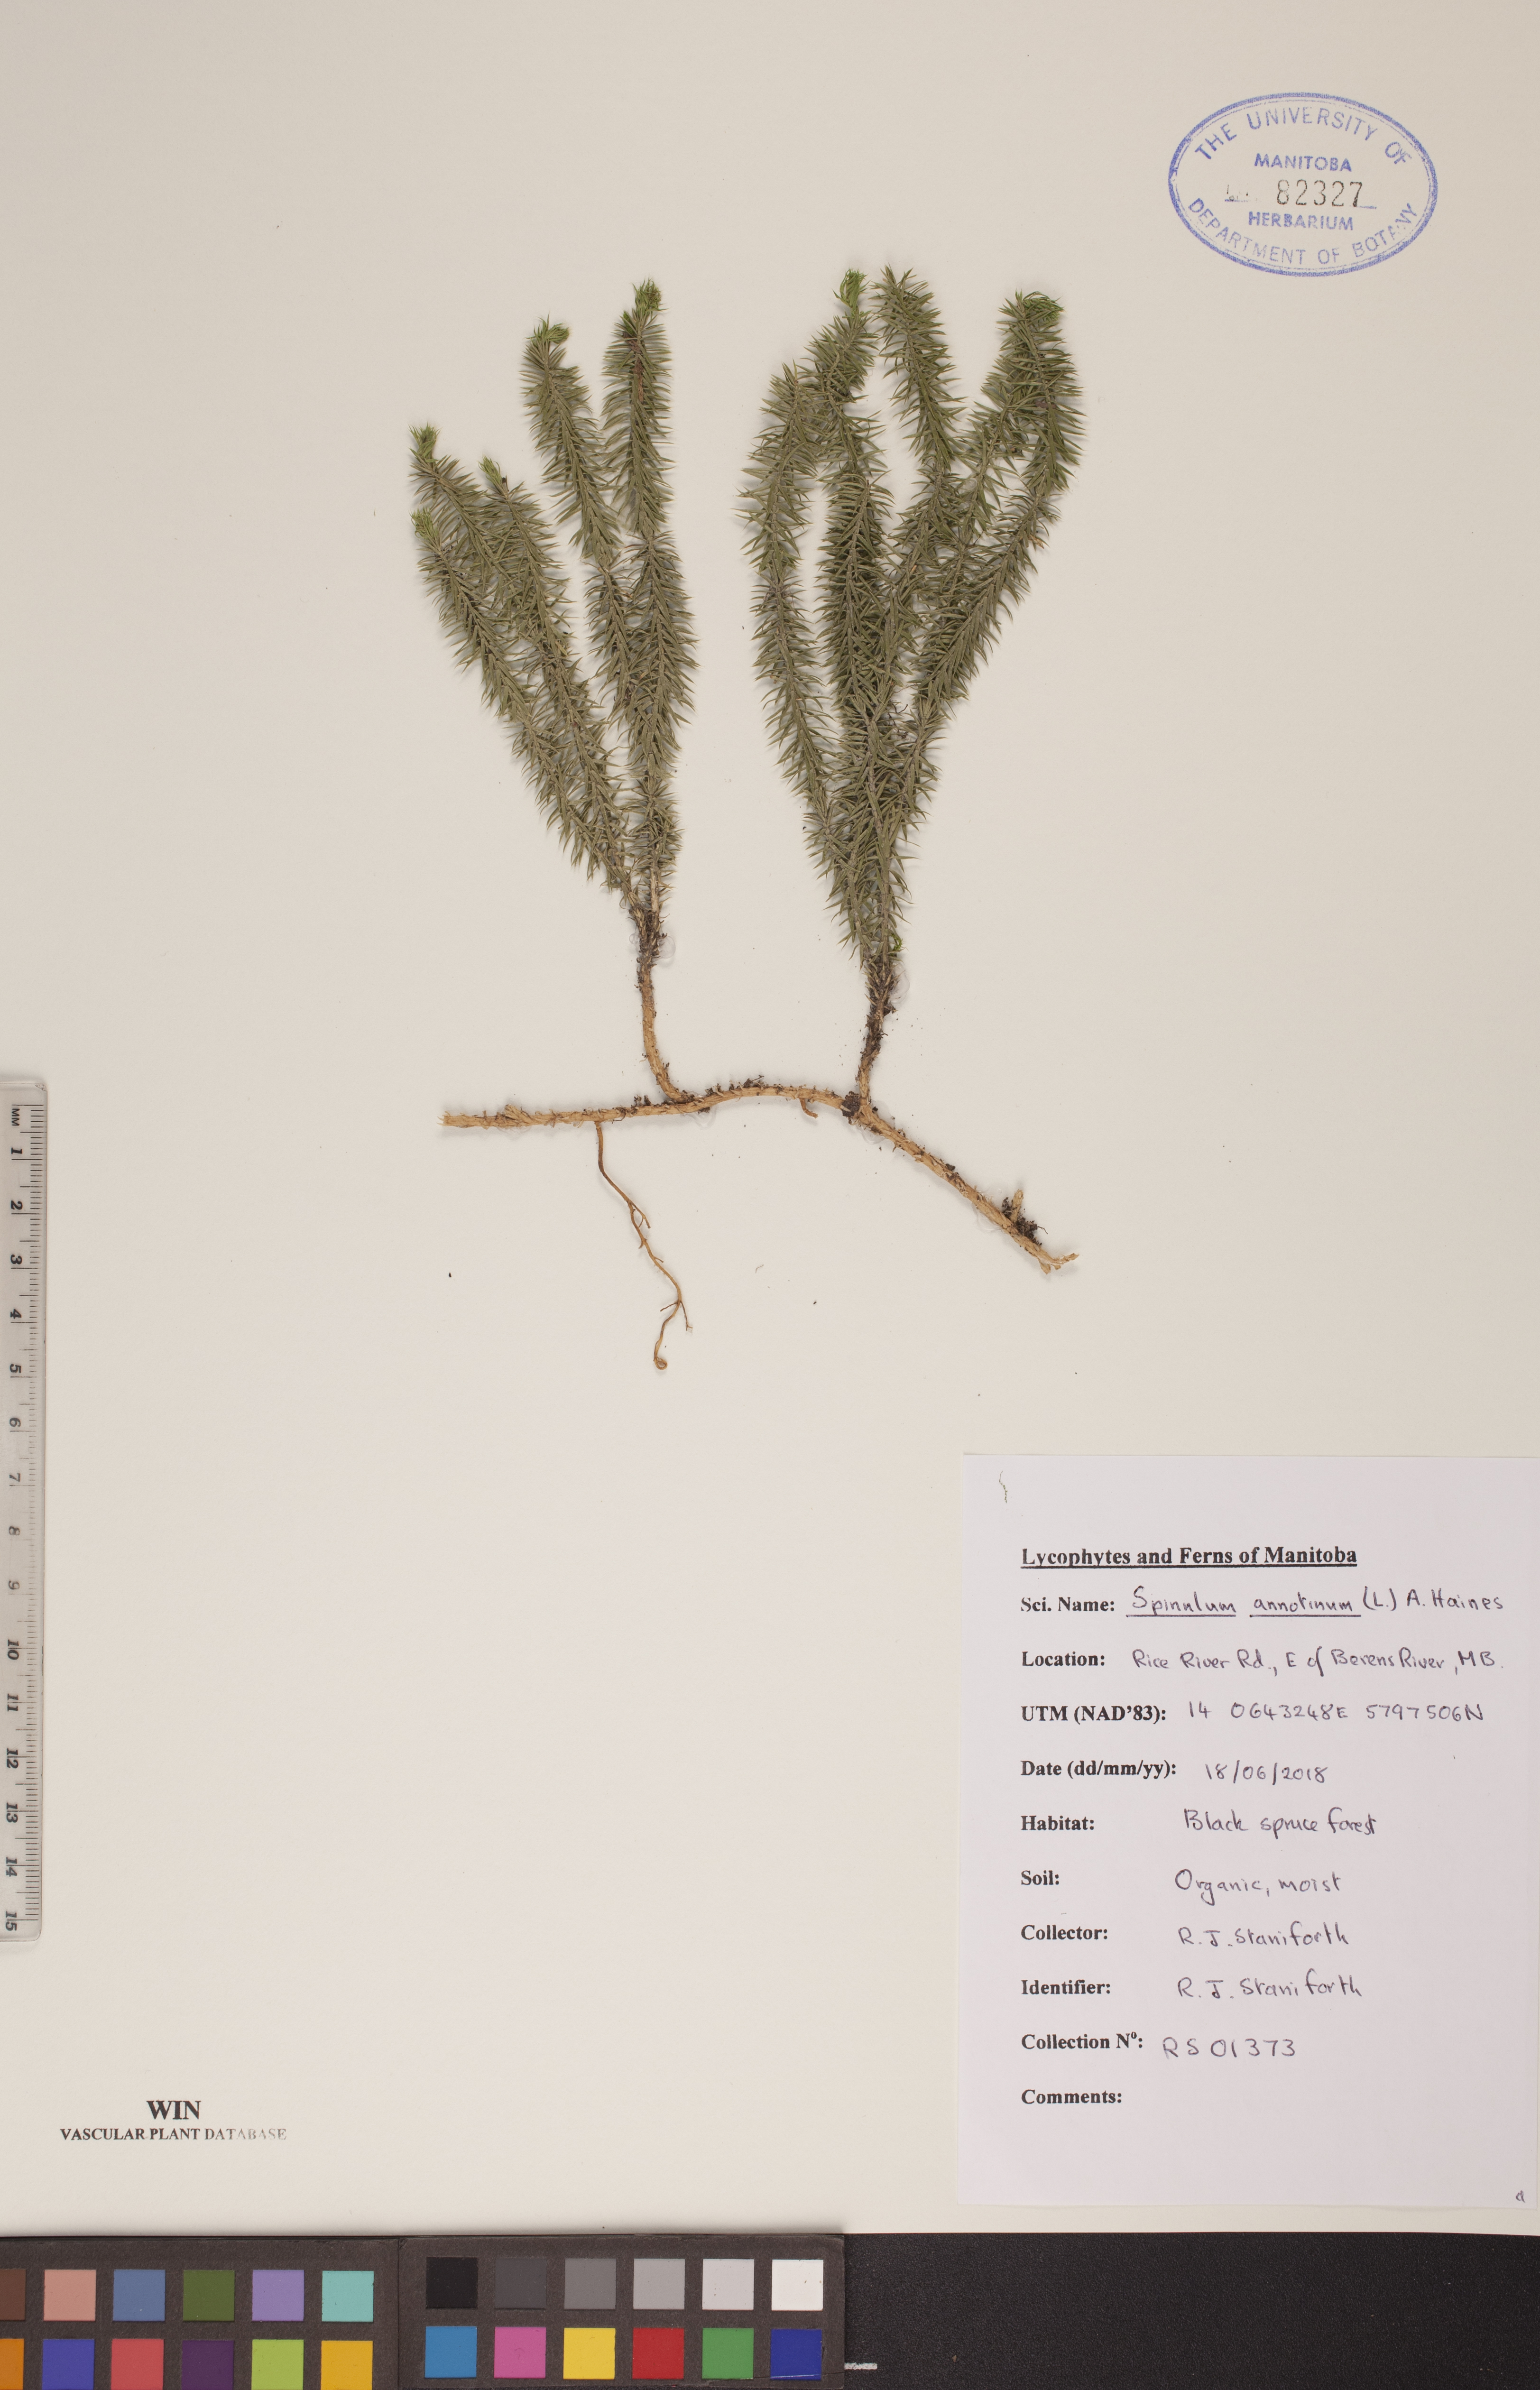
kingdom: Plantae
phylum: Tracheophyta
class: Lycopodiopsida
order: Lycopodiales
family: Lycopodiaceae
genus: Spinulum
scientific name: Spinulum annotinum
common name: Interrupted club-moss
